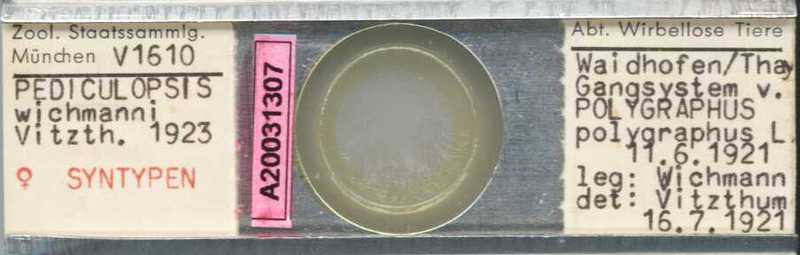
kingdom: Animalia
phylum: Arthropoda
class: Arachnida
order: Trombidiformes
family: Siteroptidae
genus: Pediculopsis
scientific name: Pediculopsis
